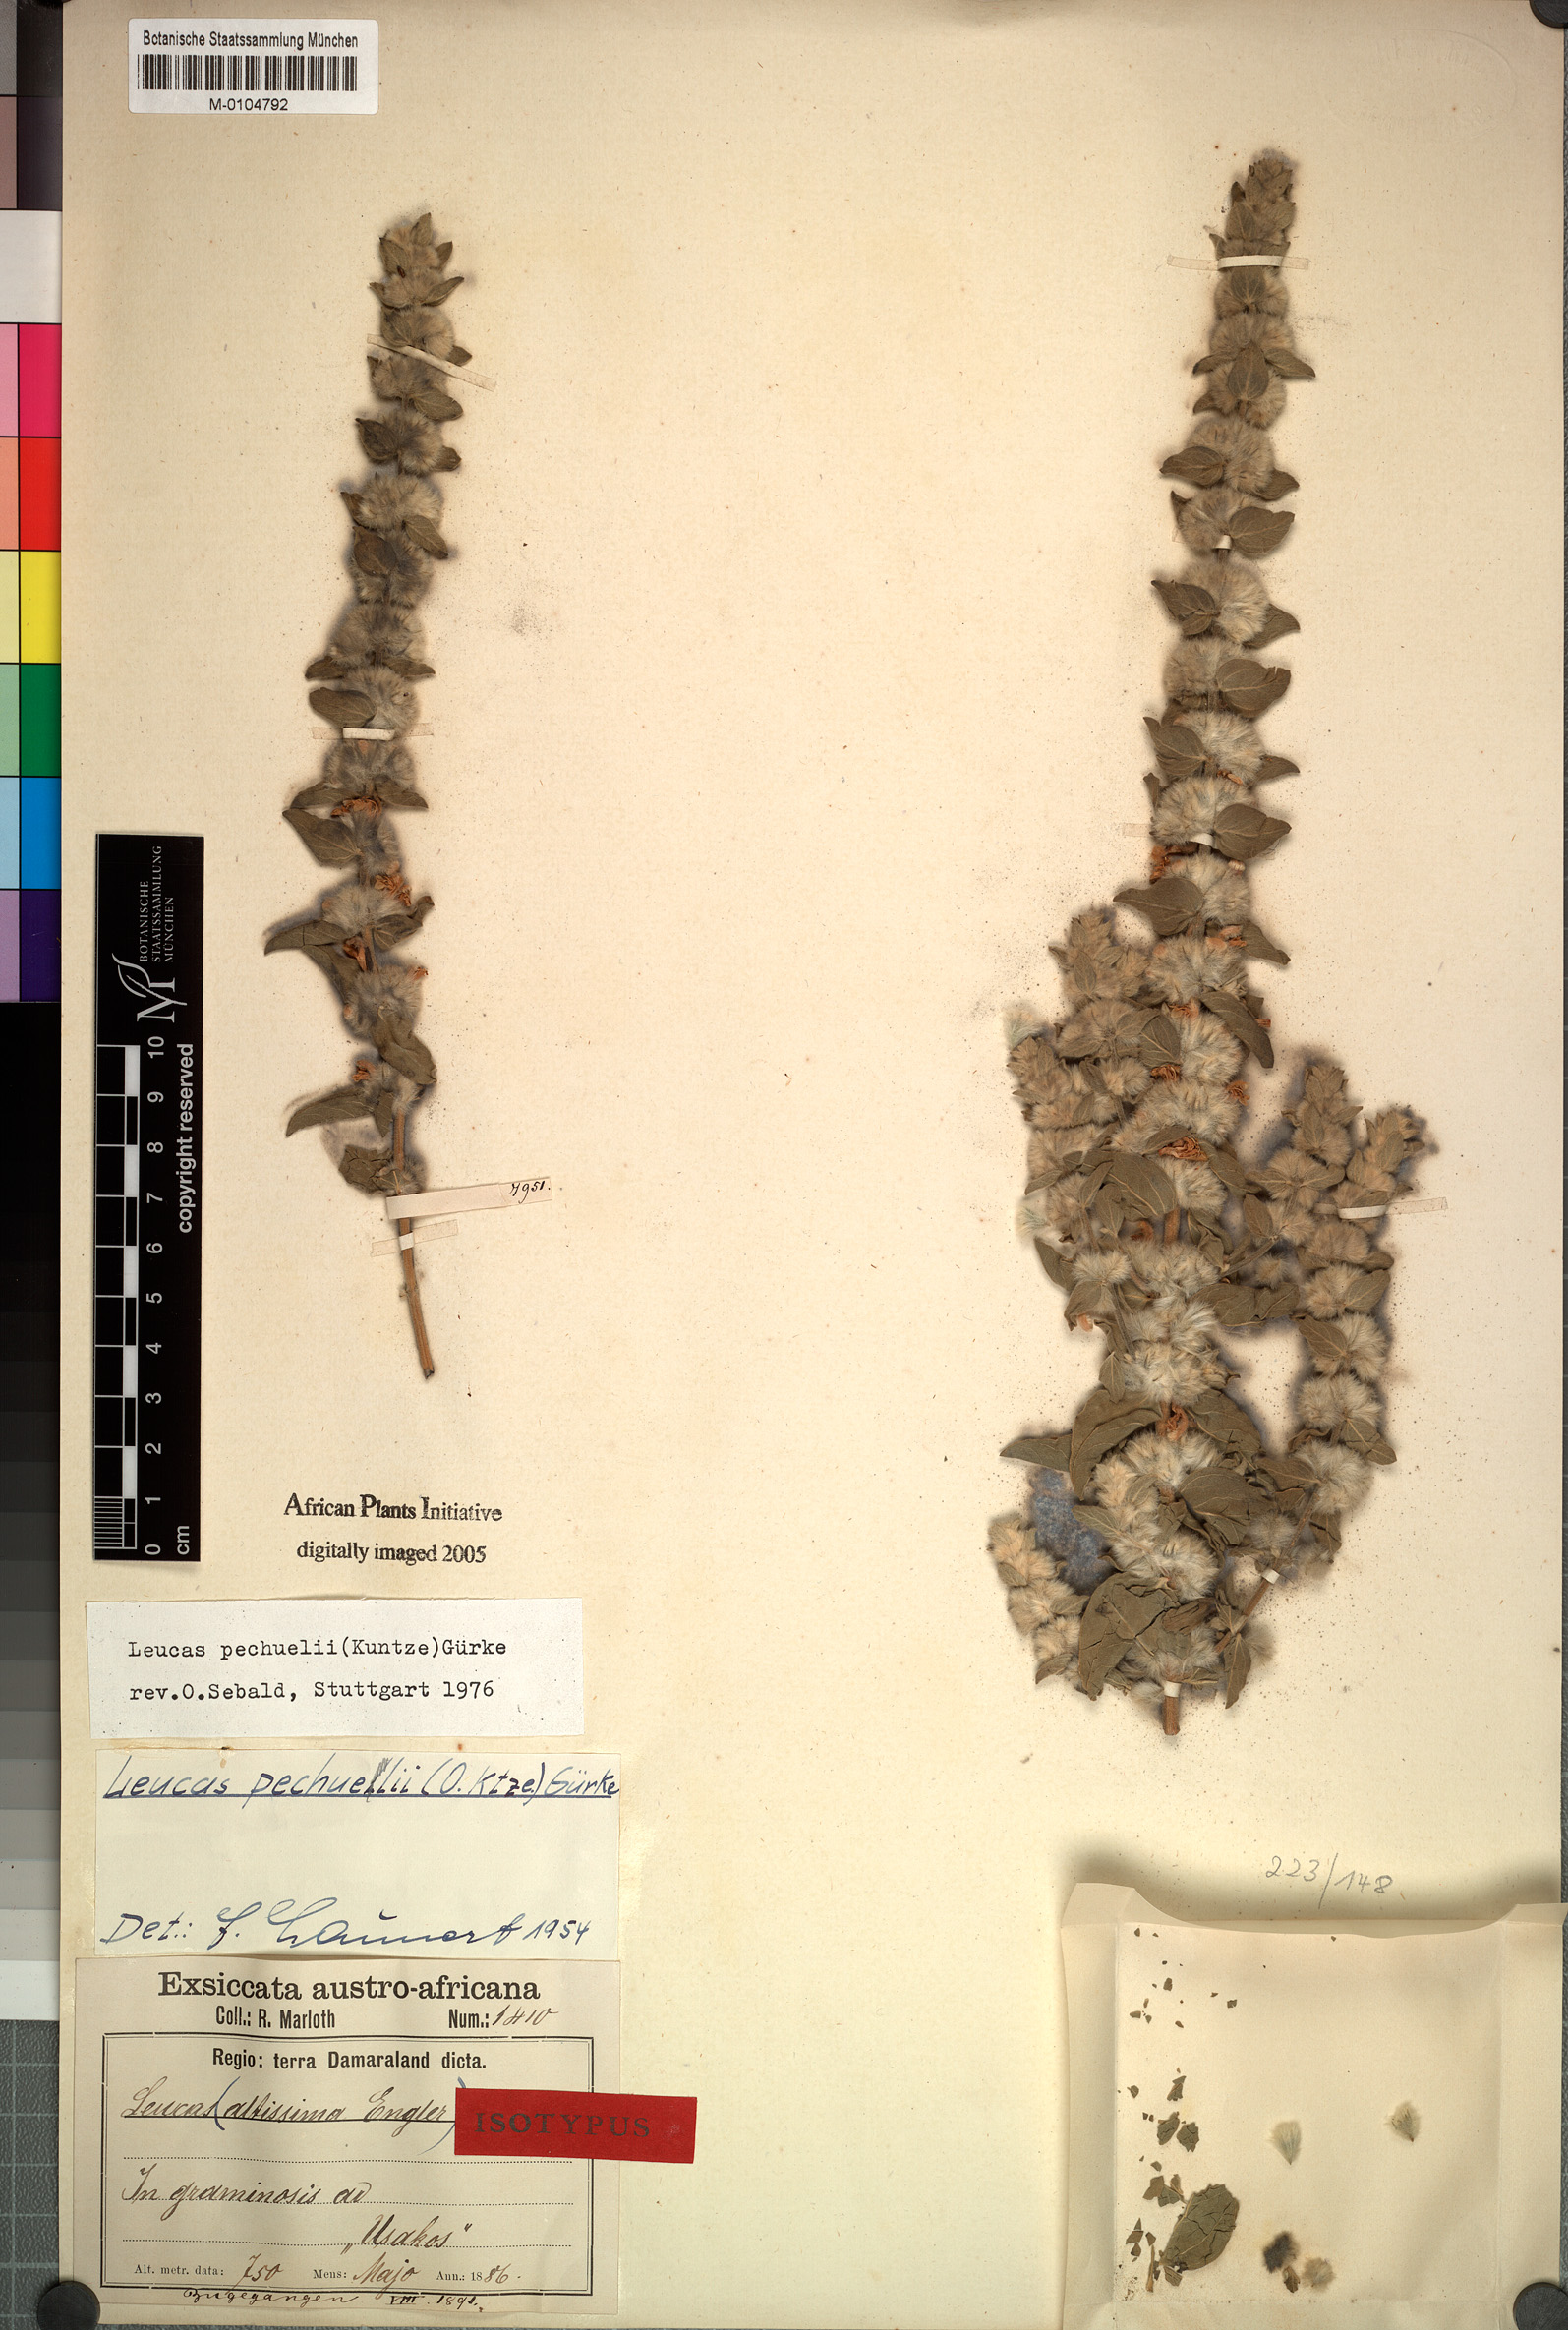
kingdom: Plantae
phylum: Tracheophyta
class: Magnoliopsida
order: Lamiales
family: Lamiaceae
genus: Leucas
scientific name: Leucas pechuelii
